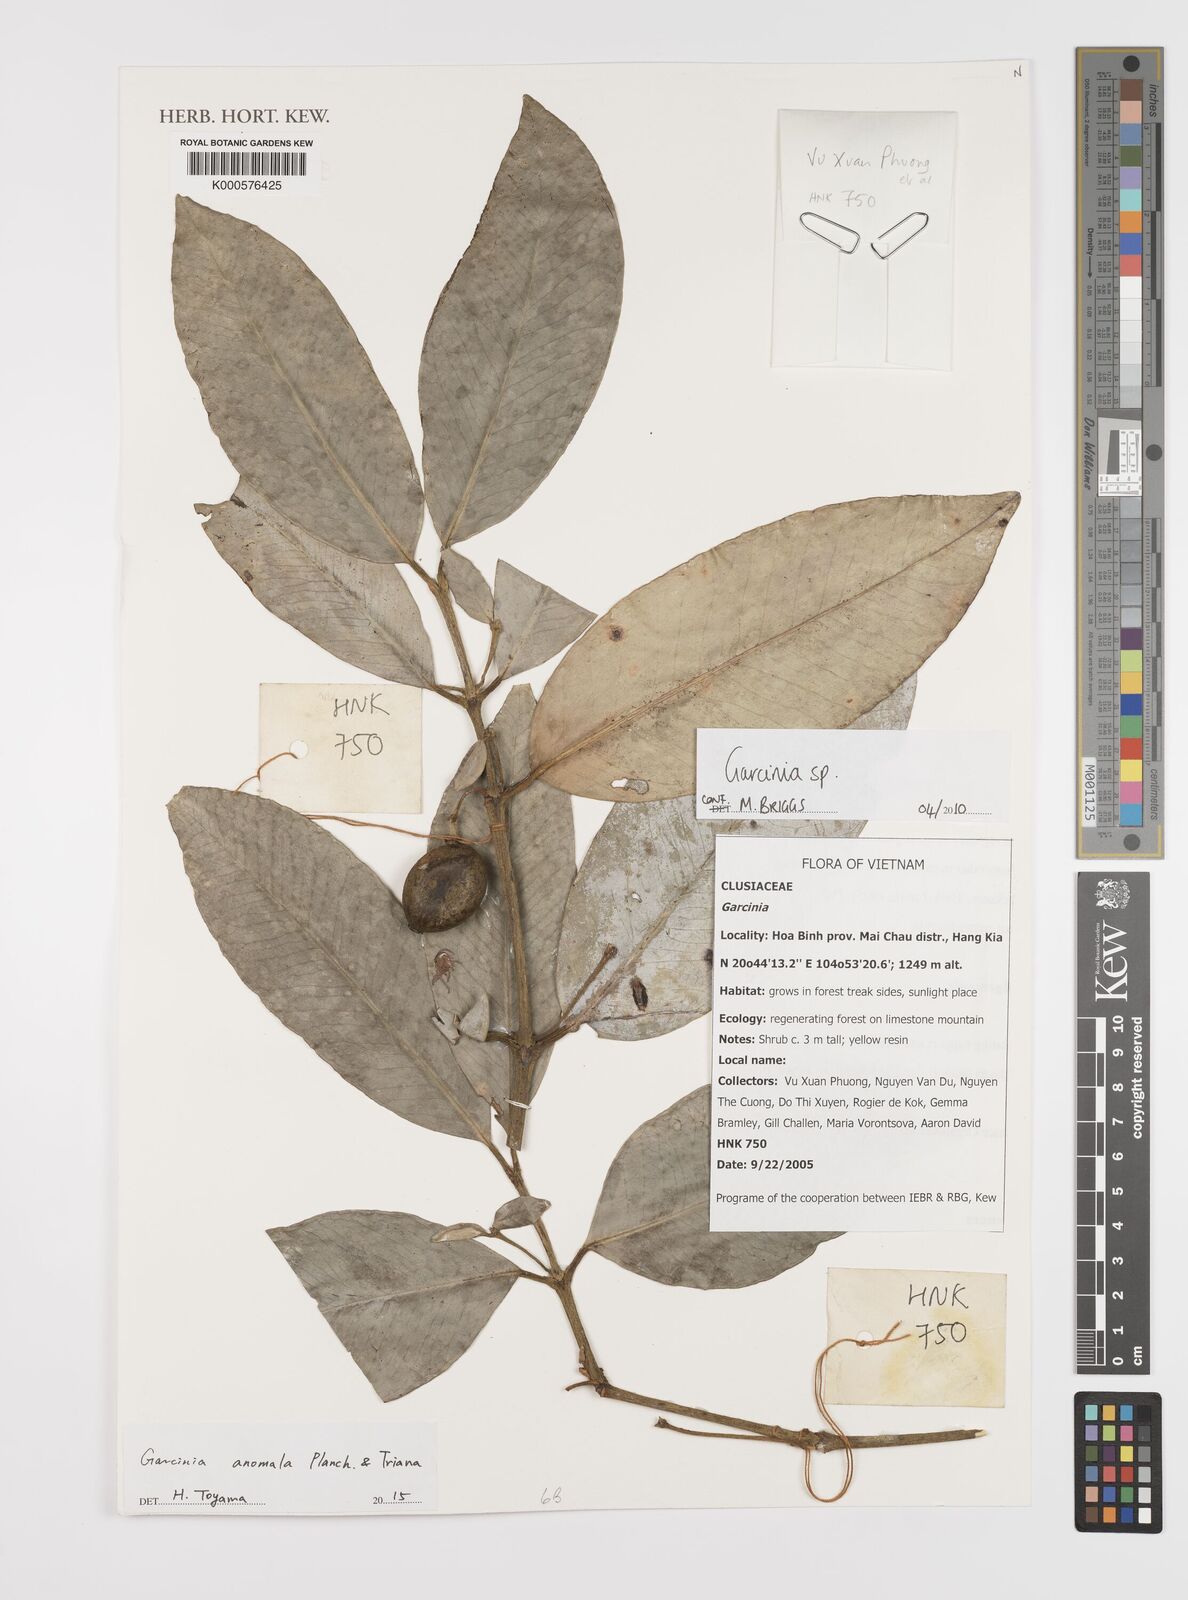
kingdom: Plantae
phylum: Tracheophyta
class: Magnoliopsida
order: Malpighiales
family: Clusiaceae
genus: Garcinia
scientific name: Garcinia
